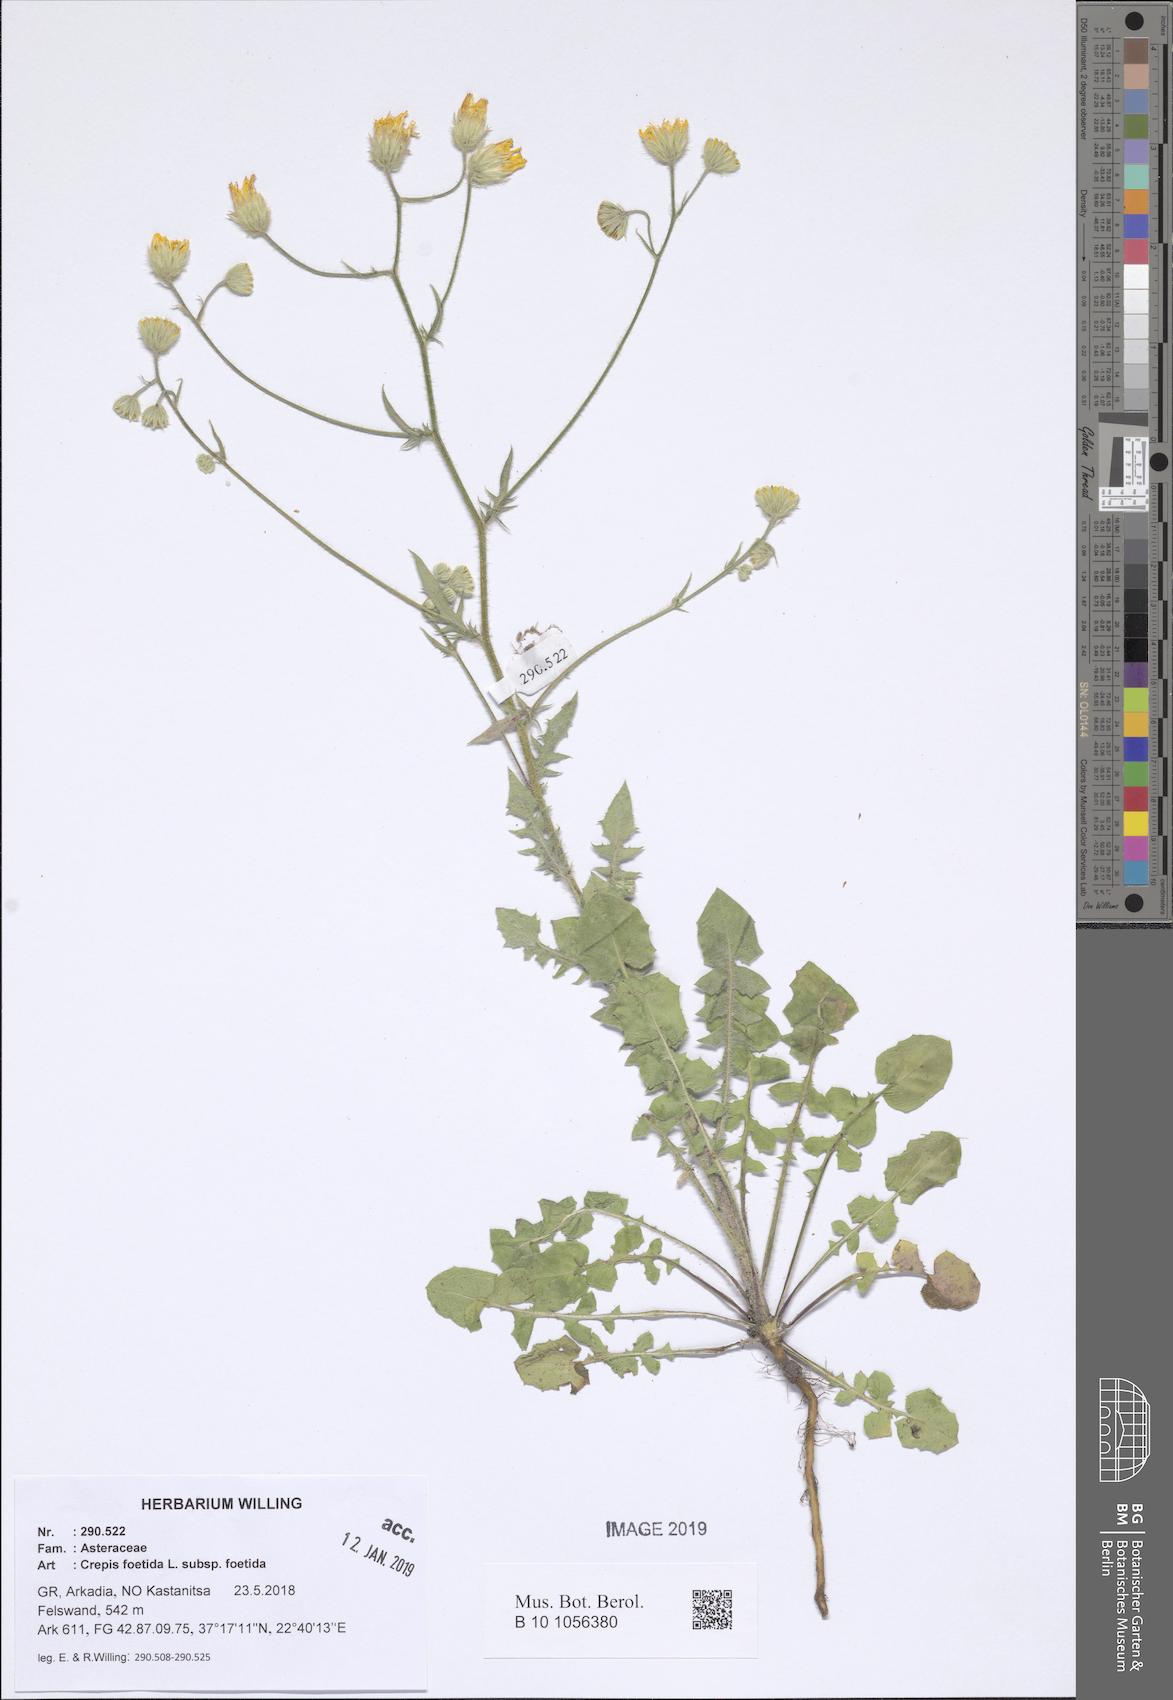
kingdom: Plantae
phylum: Tracheophyta
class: Magnoliopsida
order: Asterales
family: Asteraceae
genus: Crepis
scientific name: Crepis foetida
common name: Stinking hawk's-beard
